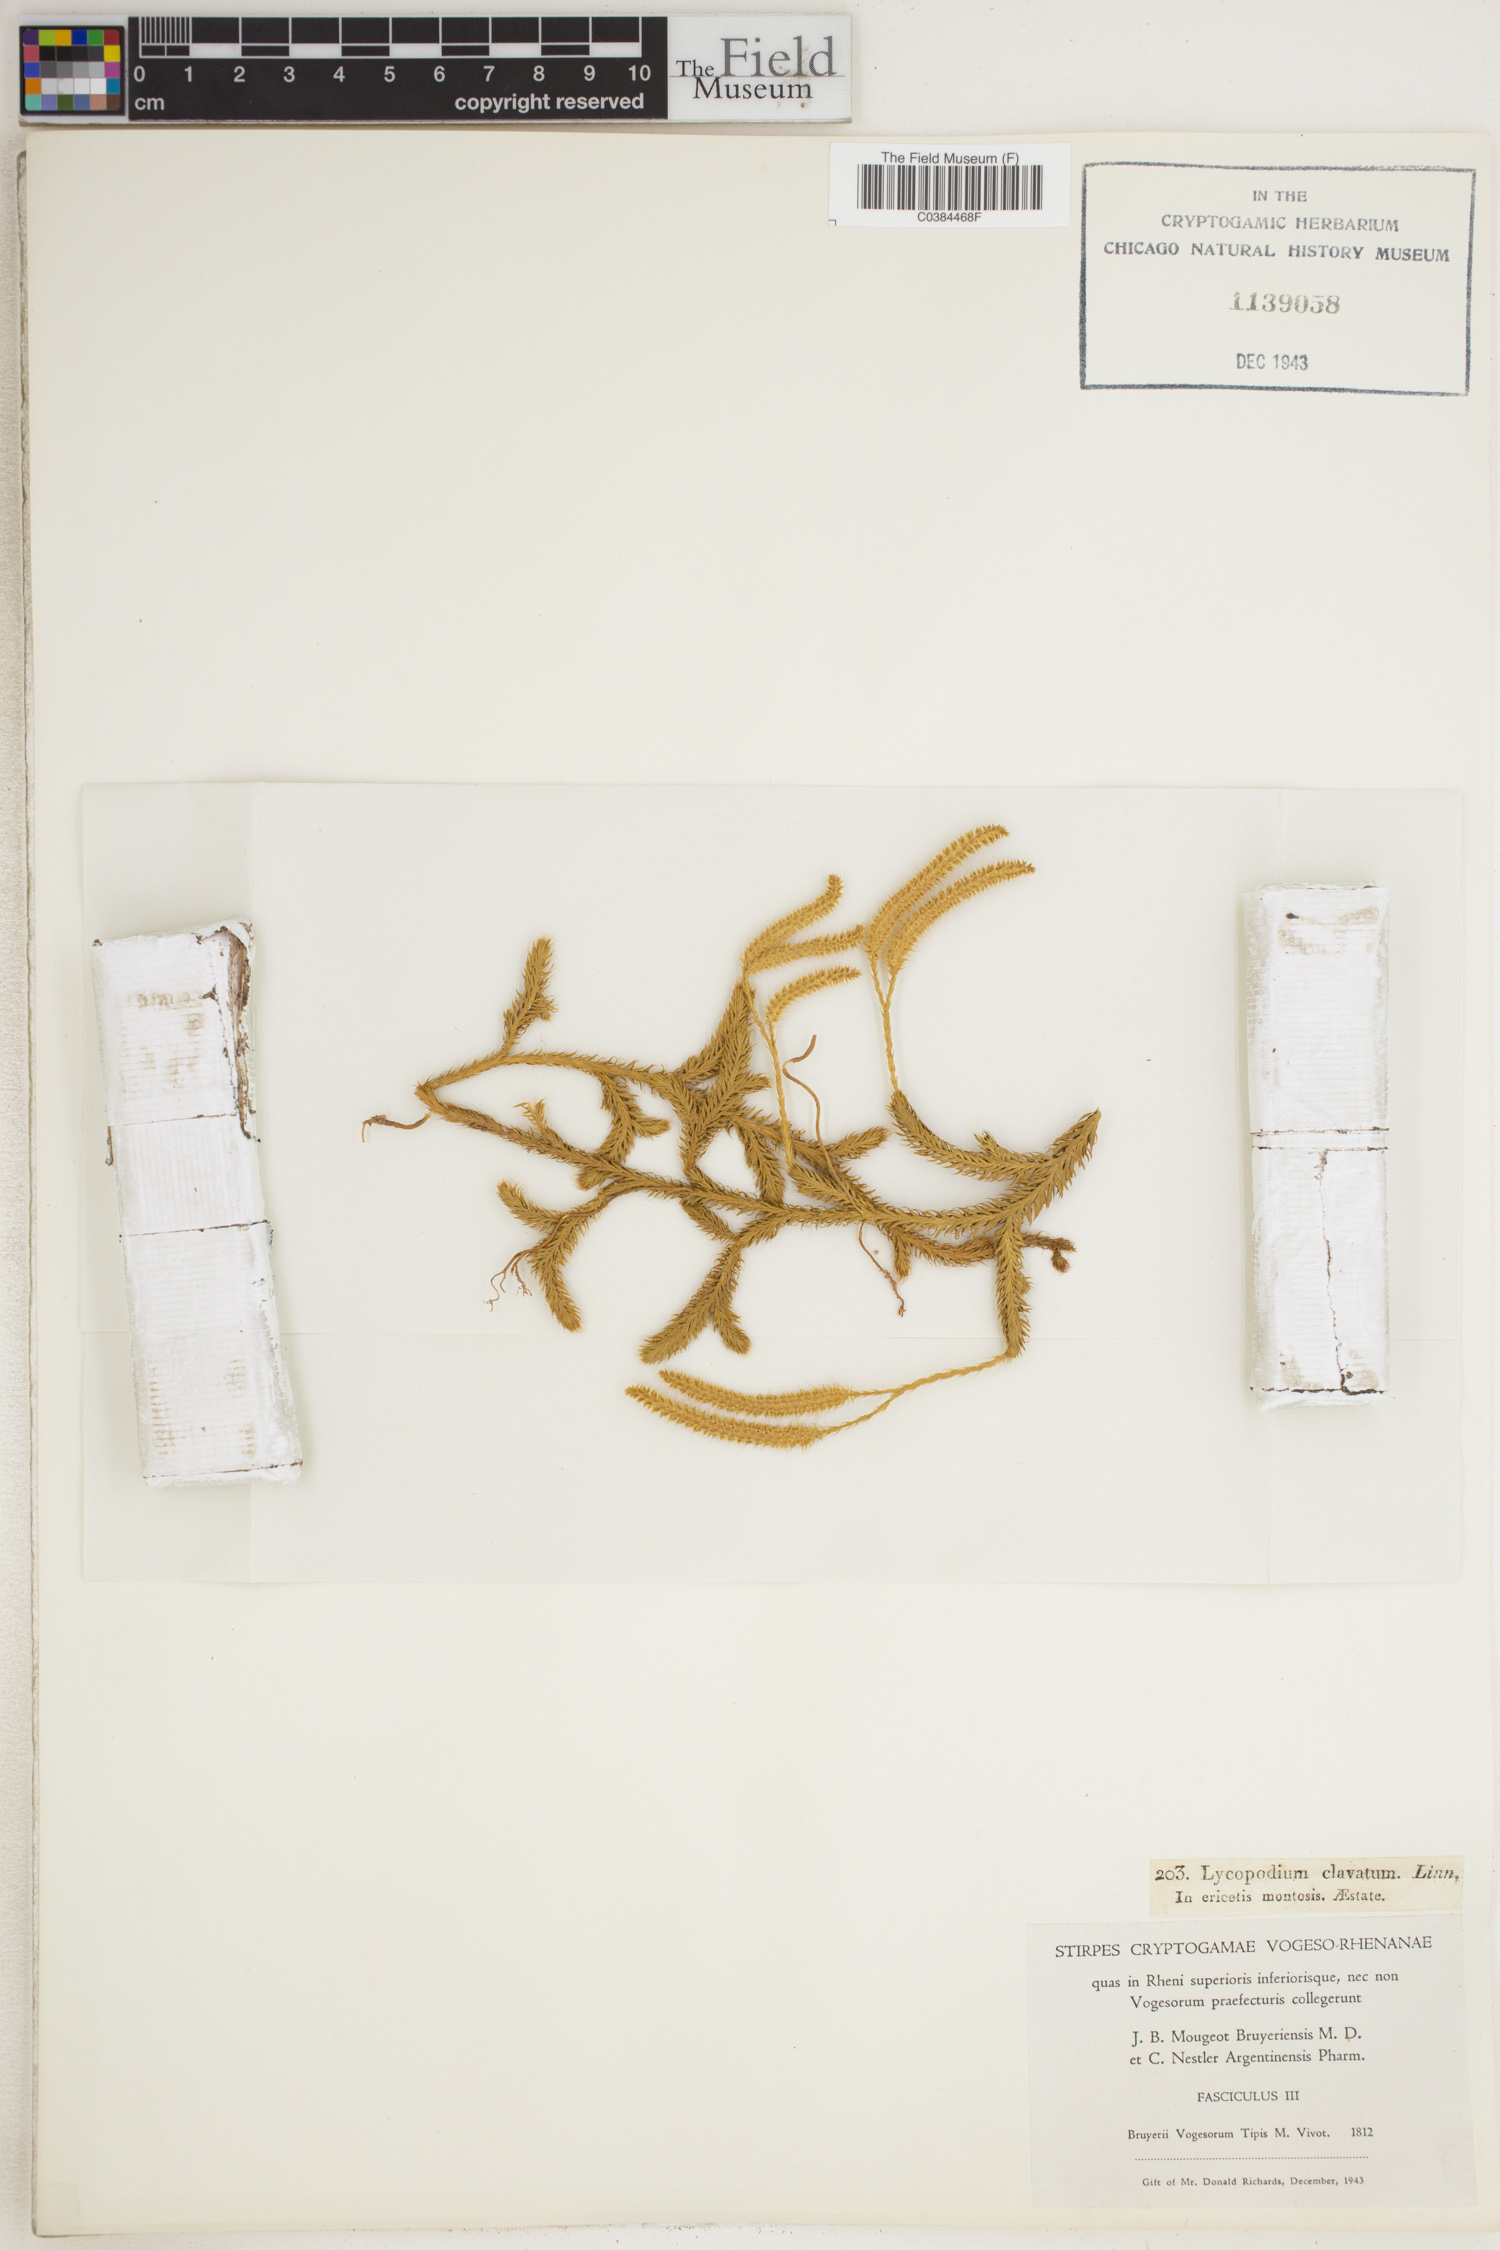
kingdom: Plantae
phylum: Tracheophyta
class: Lycopodiopsida
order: Lycopodiales
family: Lycopodiaceae
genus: Lycopodium
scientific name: Lycopodium clavatum
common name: Stag's-horn clubmoss
